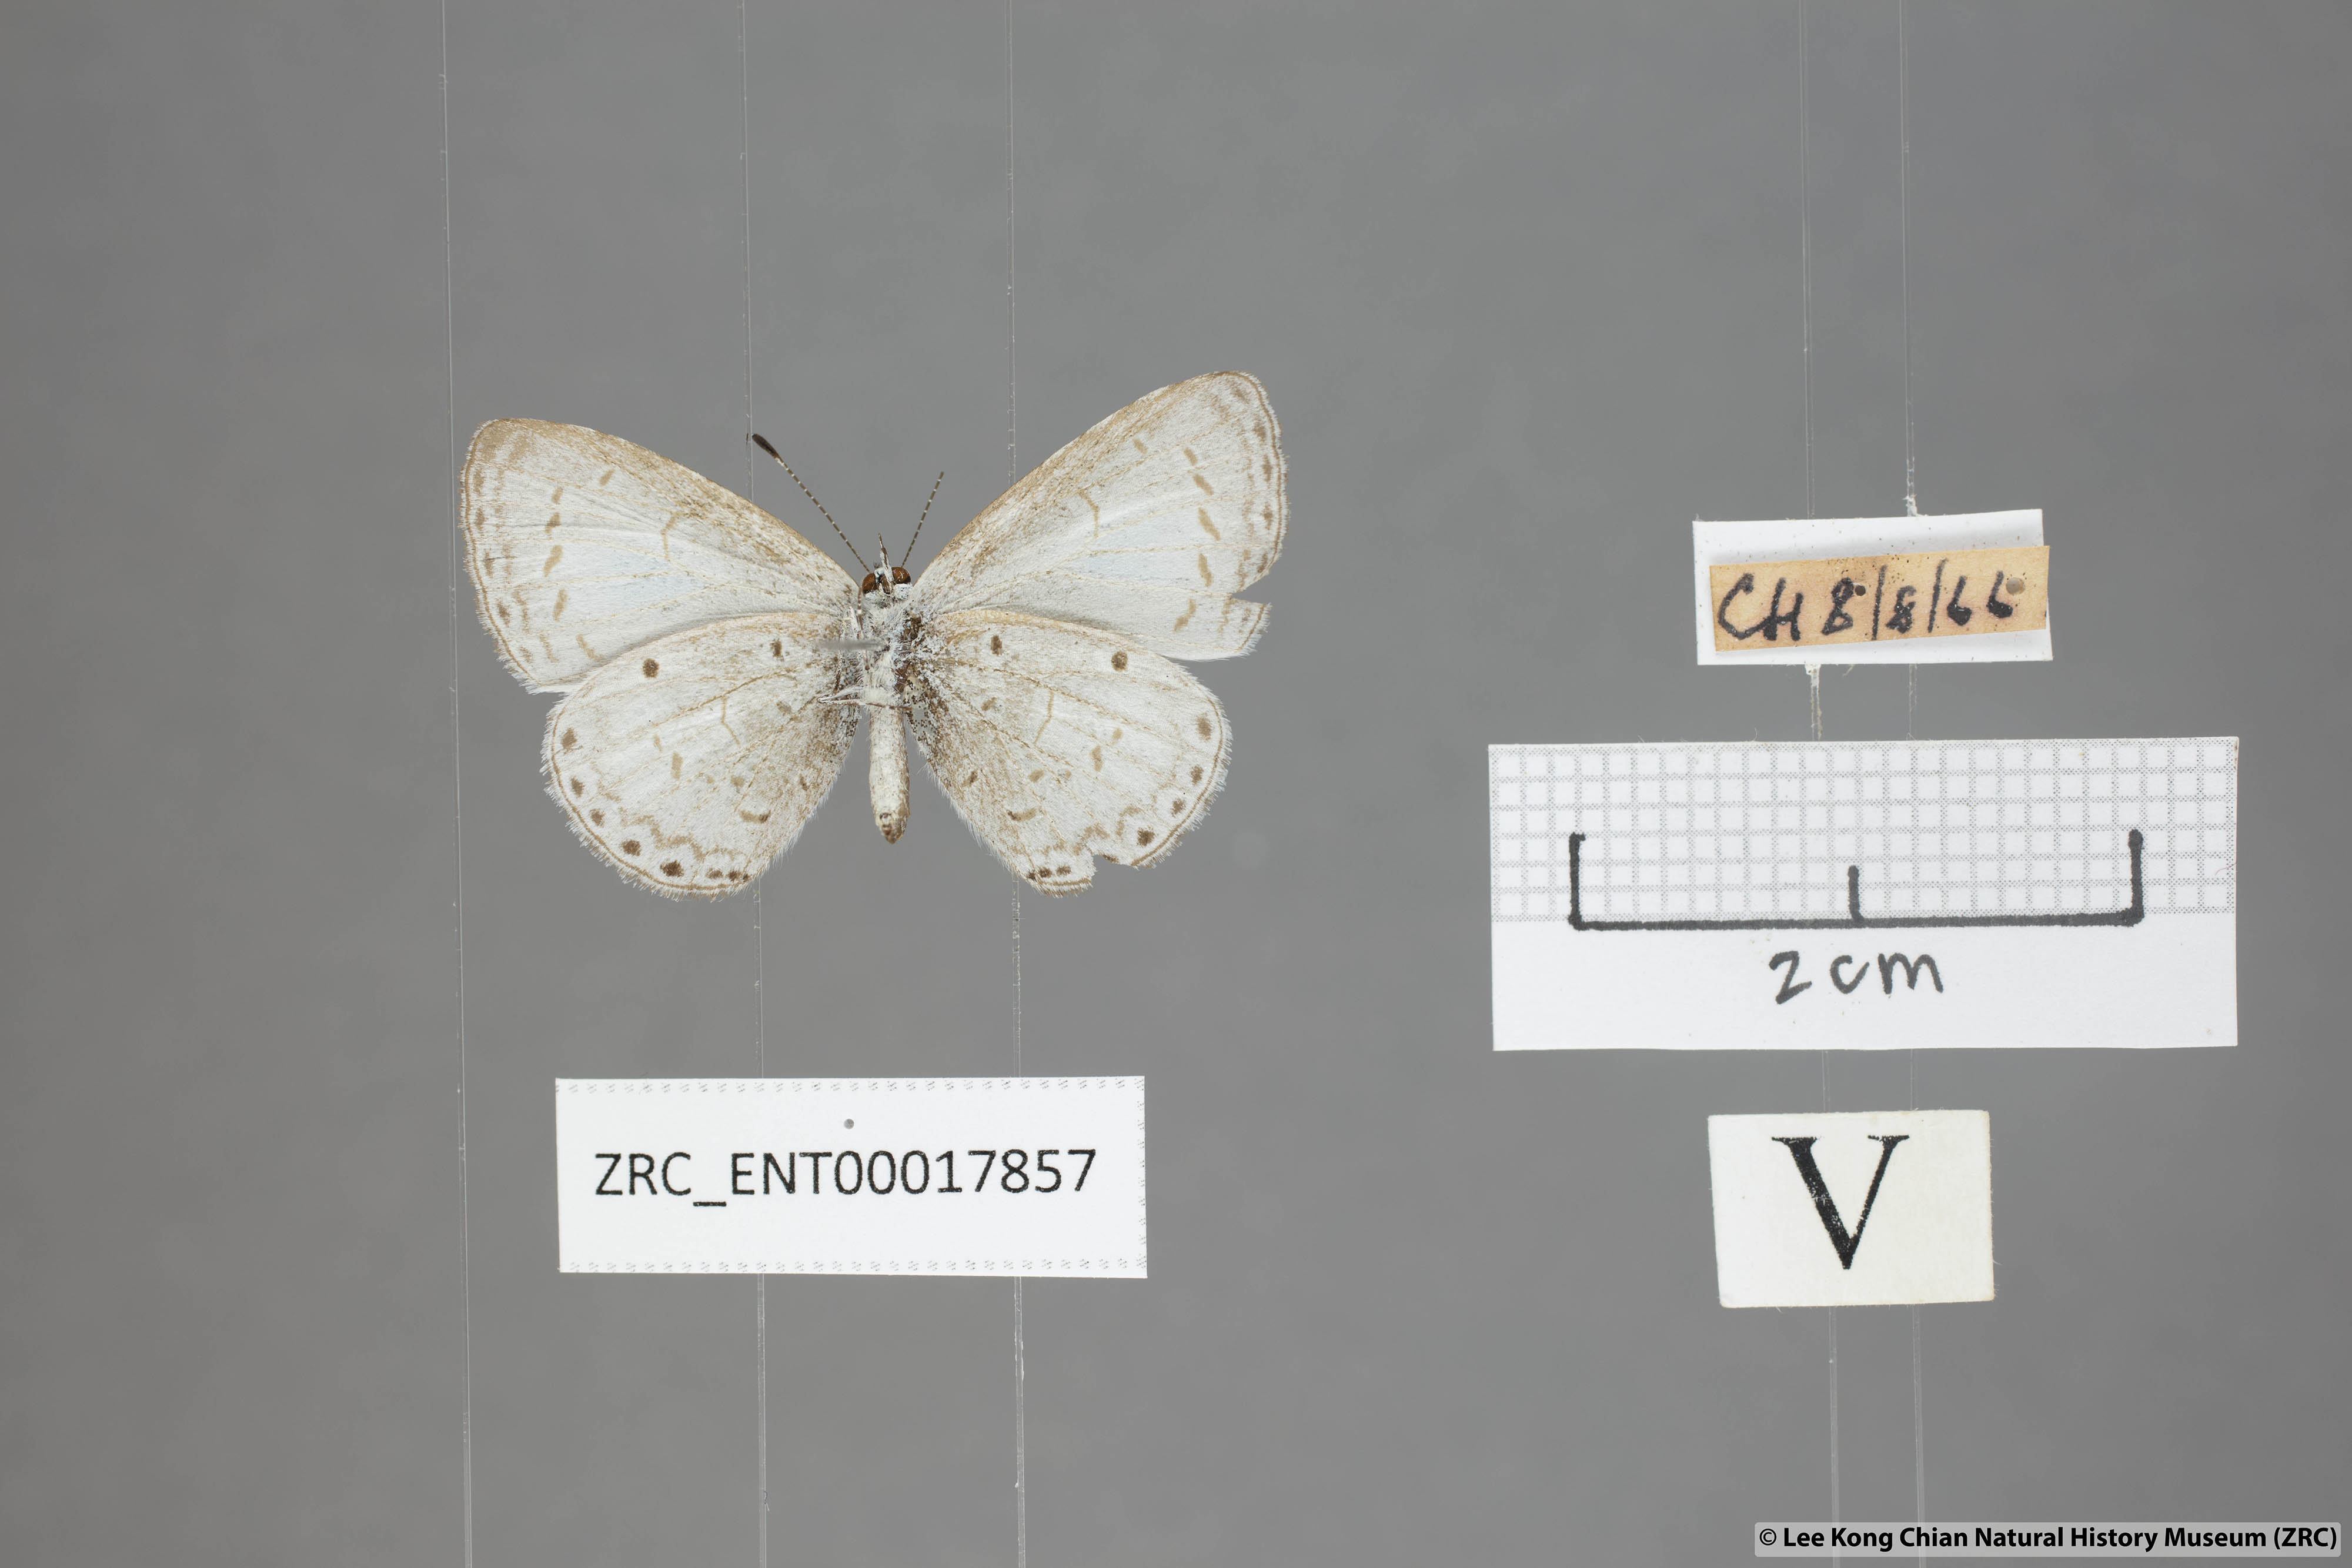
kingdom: Animalia
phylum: Arthropoda
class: Insecta
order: Lepidoptera
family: Lycaenidae
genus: Udara
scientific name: Udara
